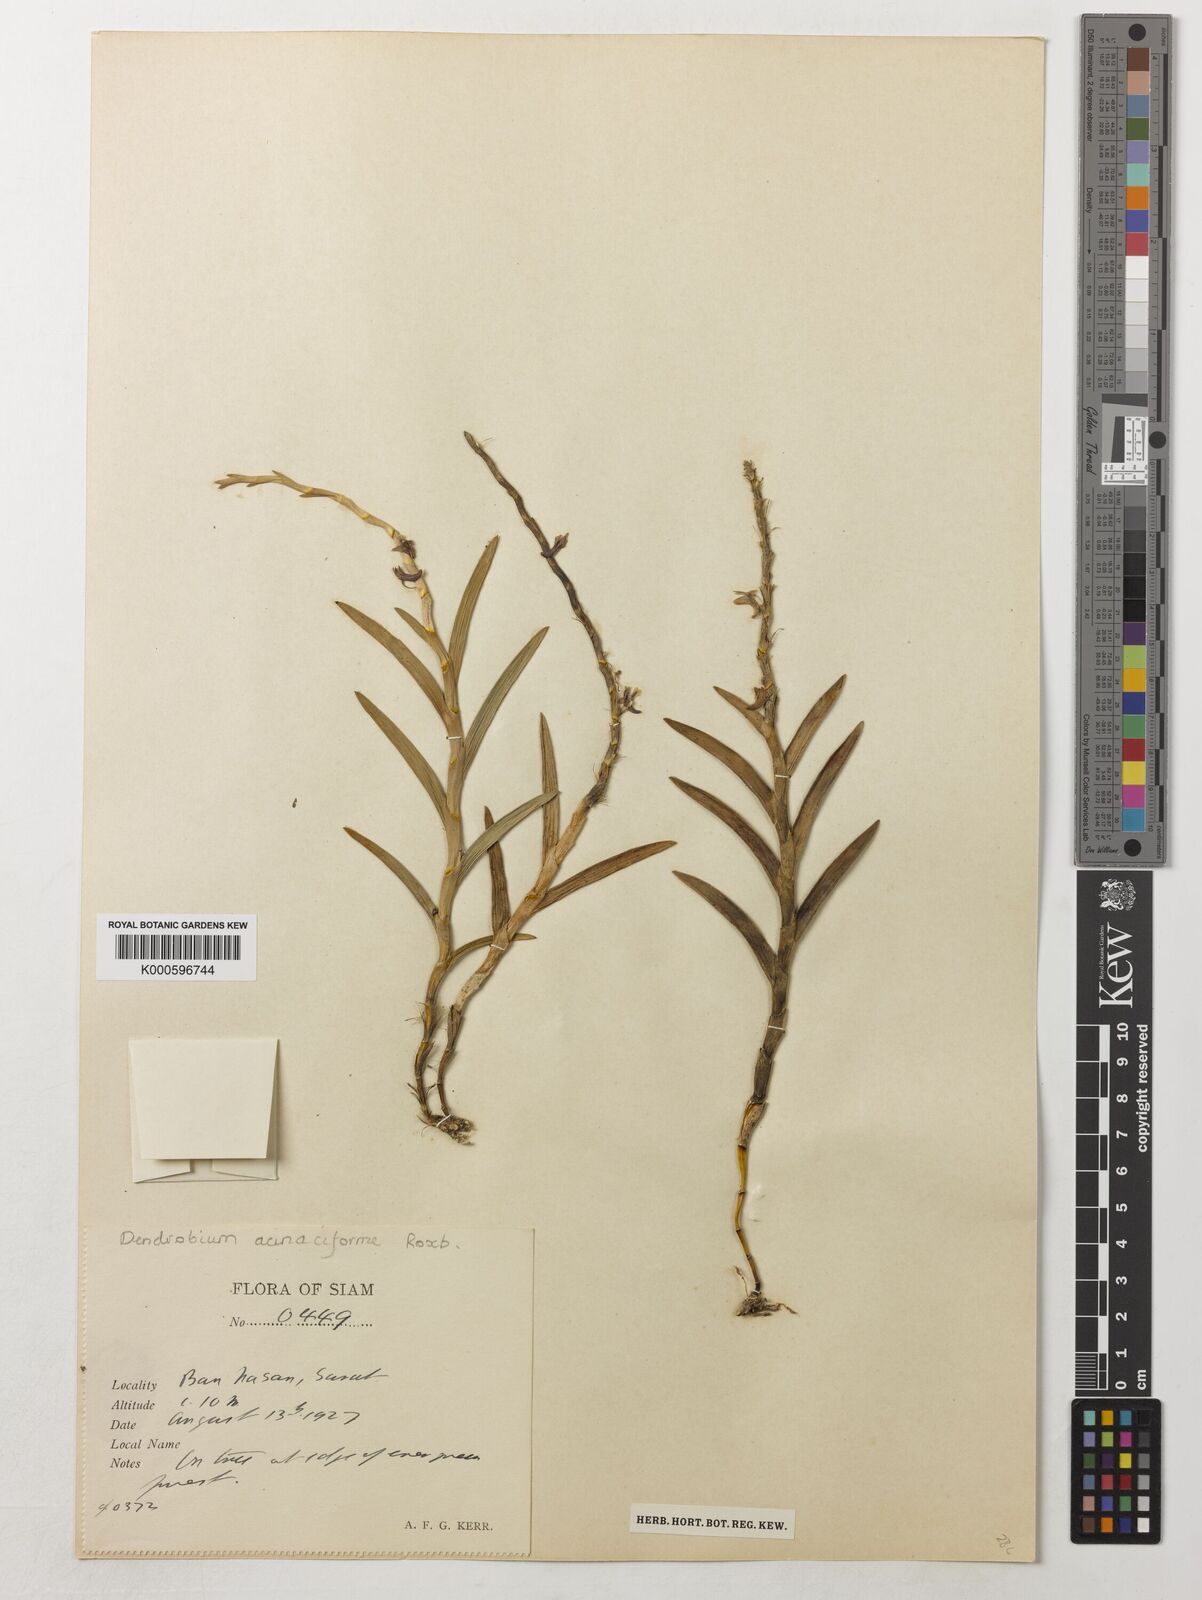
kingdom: Plantae
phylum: Tracheophyta
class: Liliopsida
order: Asparagales
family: Orchidaceae
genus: Dendrobium
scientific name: Dendrobium acinaciforme
